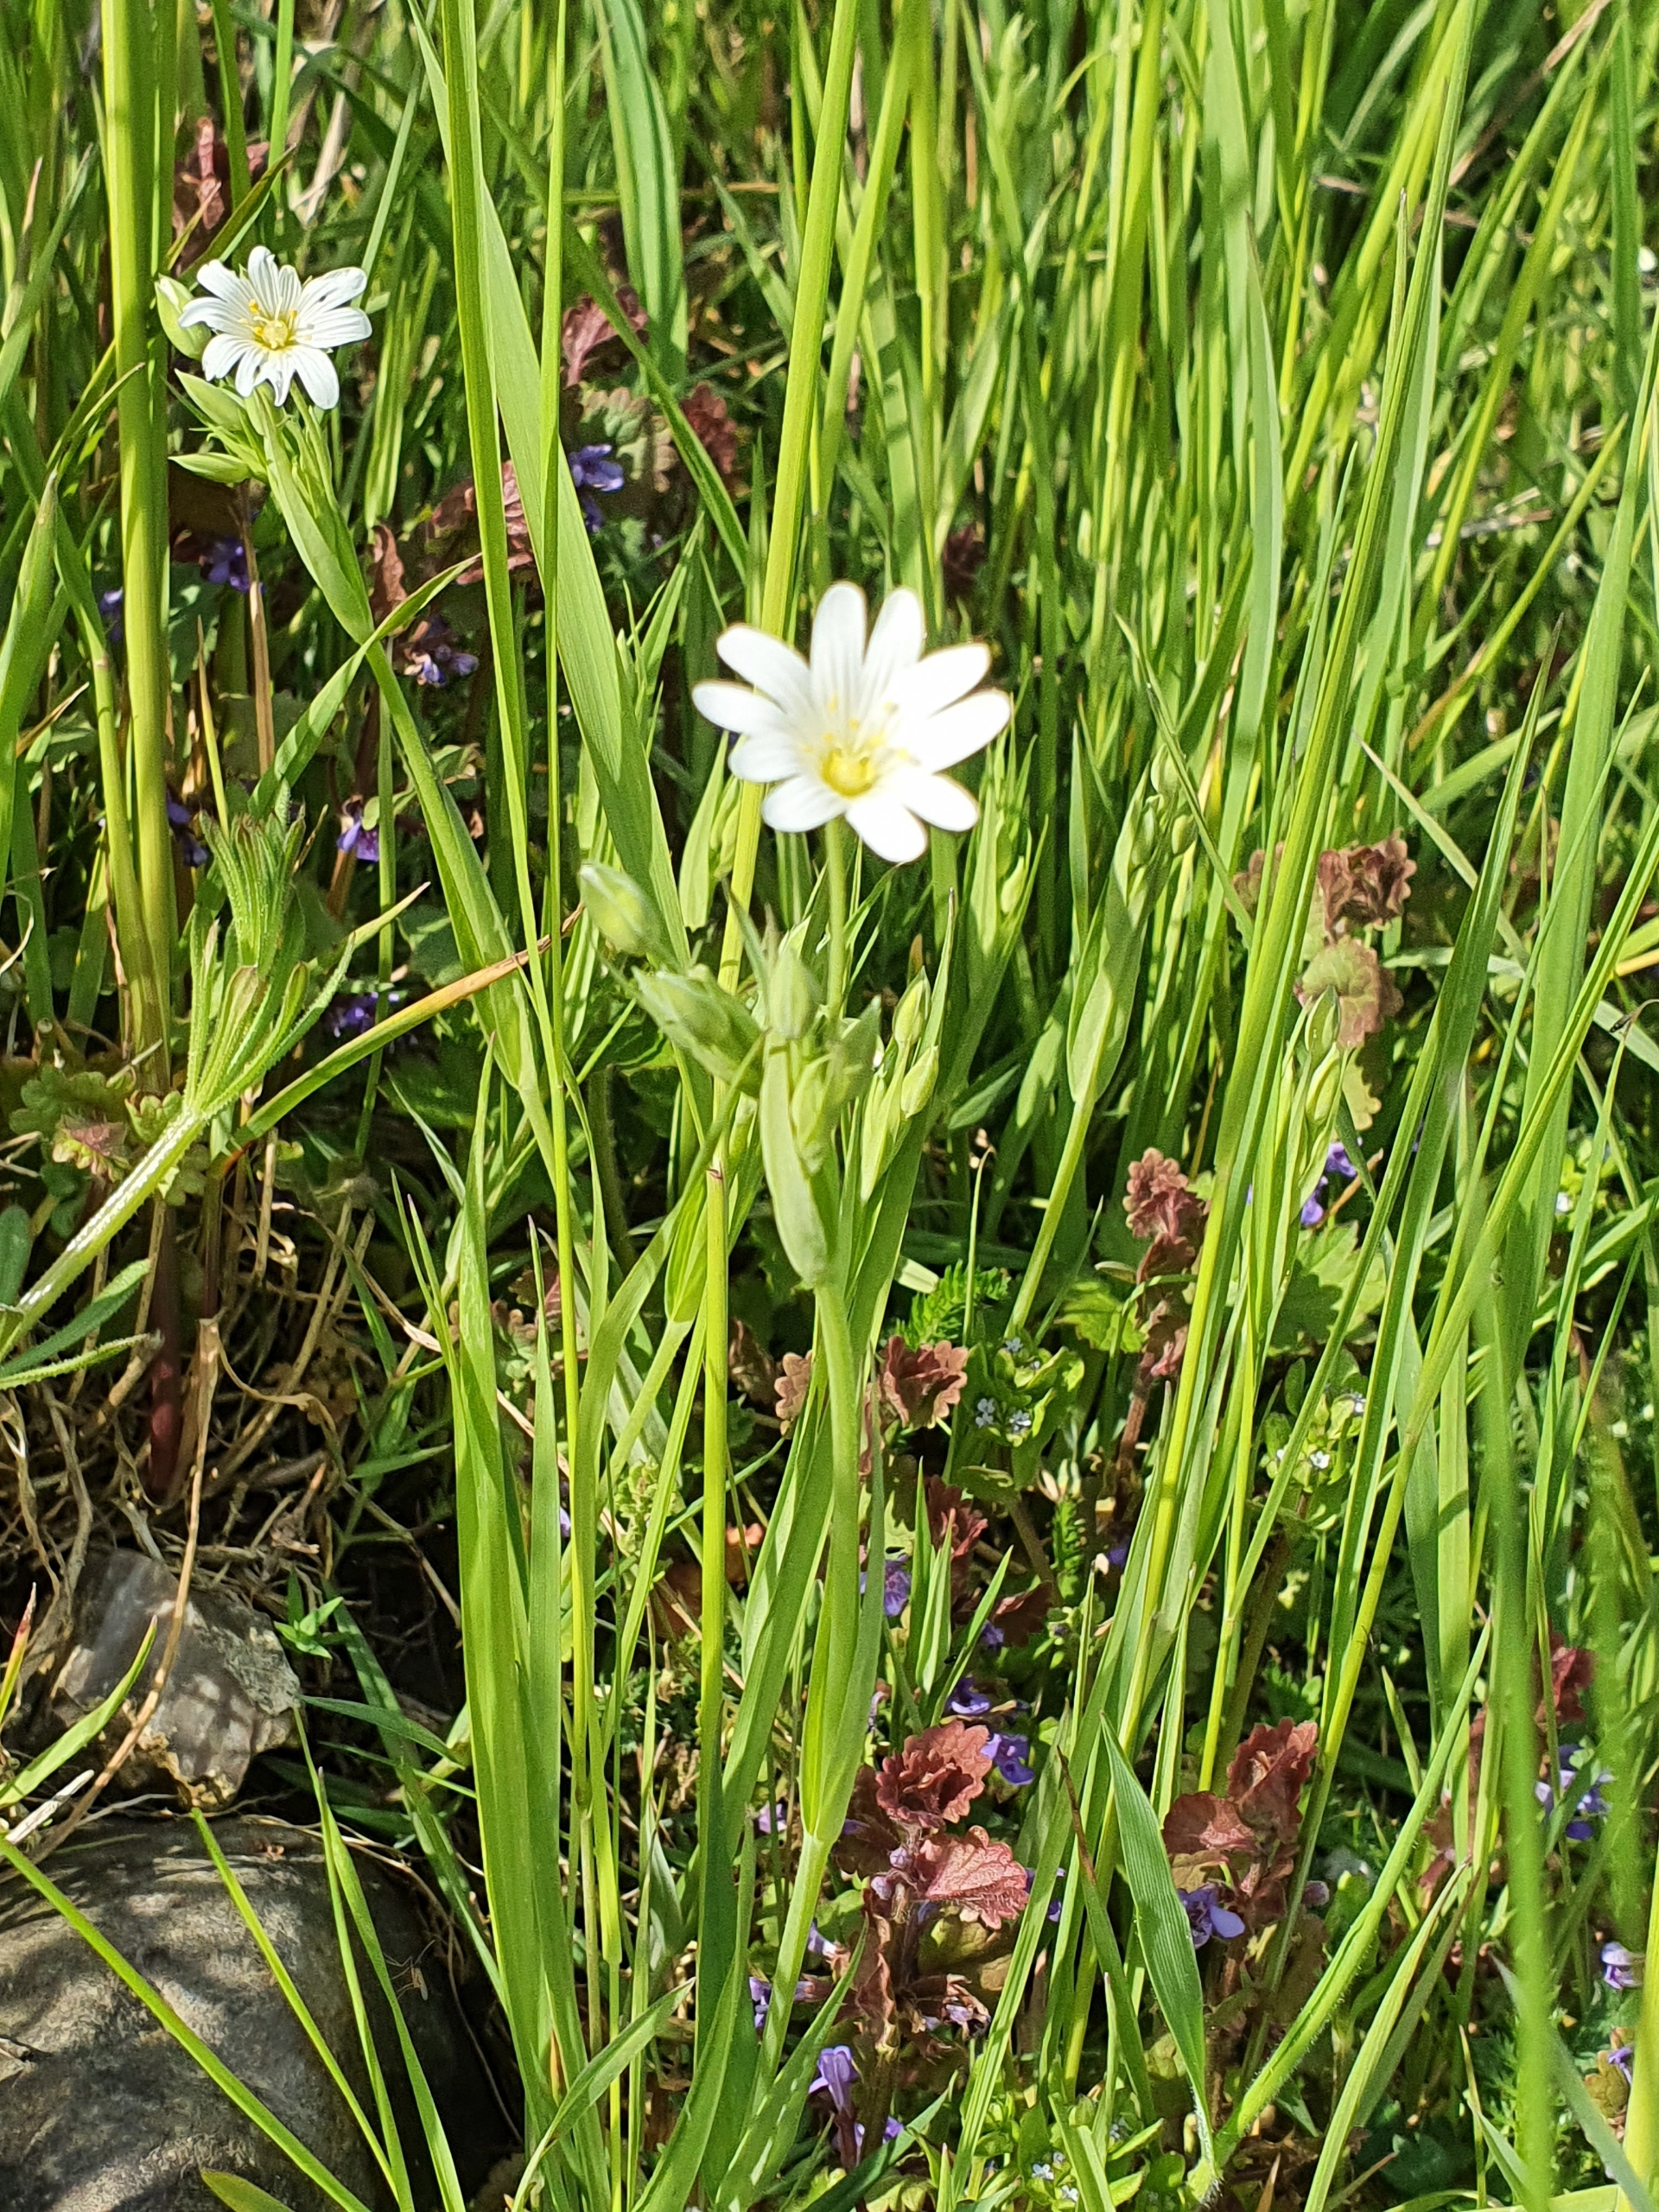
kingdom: Plantae
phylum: Tracheophyta
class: Magnoliopsida
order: Caryophyllales
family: Caryophyllaceae
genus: Rabelera
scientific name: Rabelera holostea
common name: Stor fladstjerne
